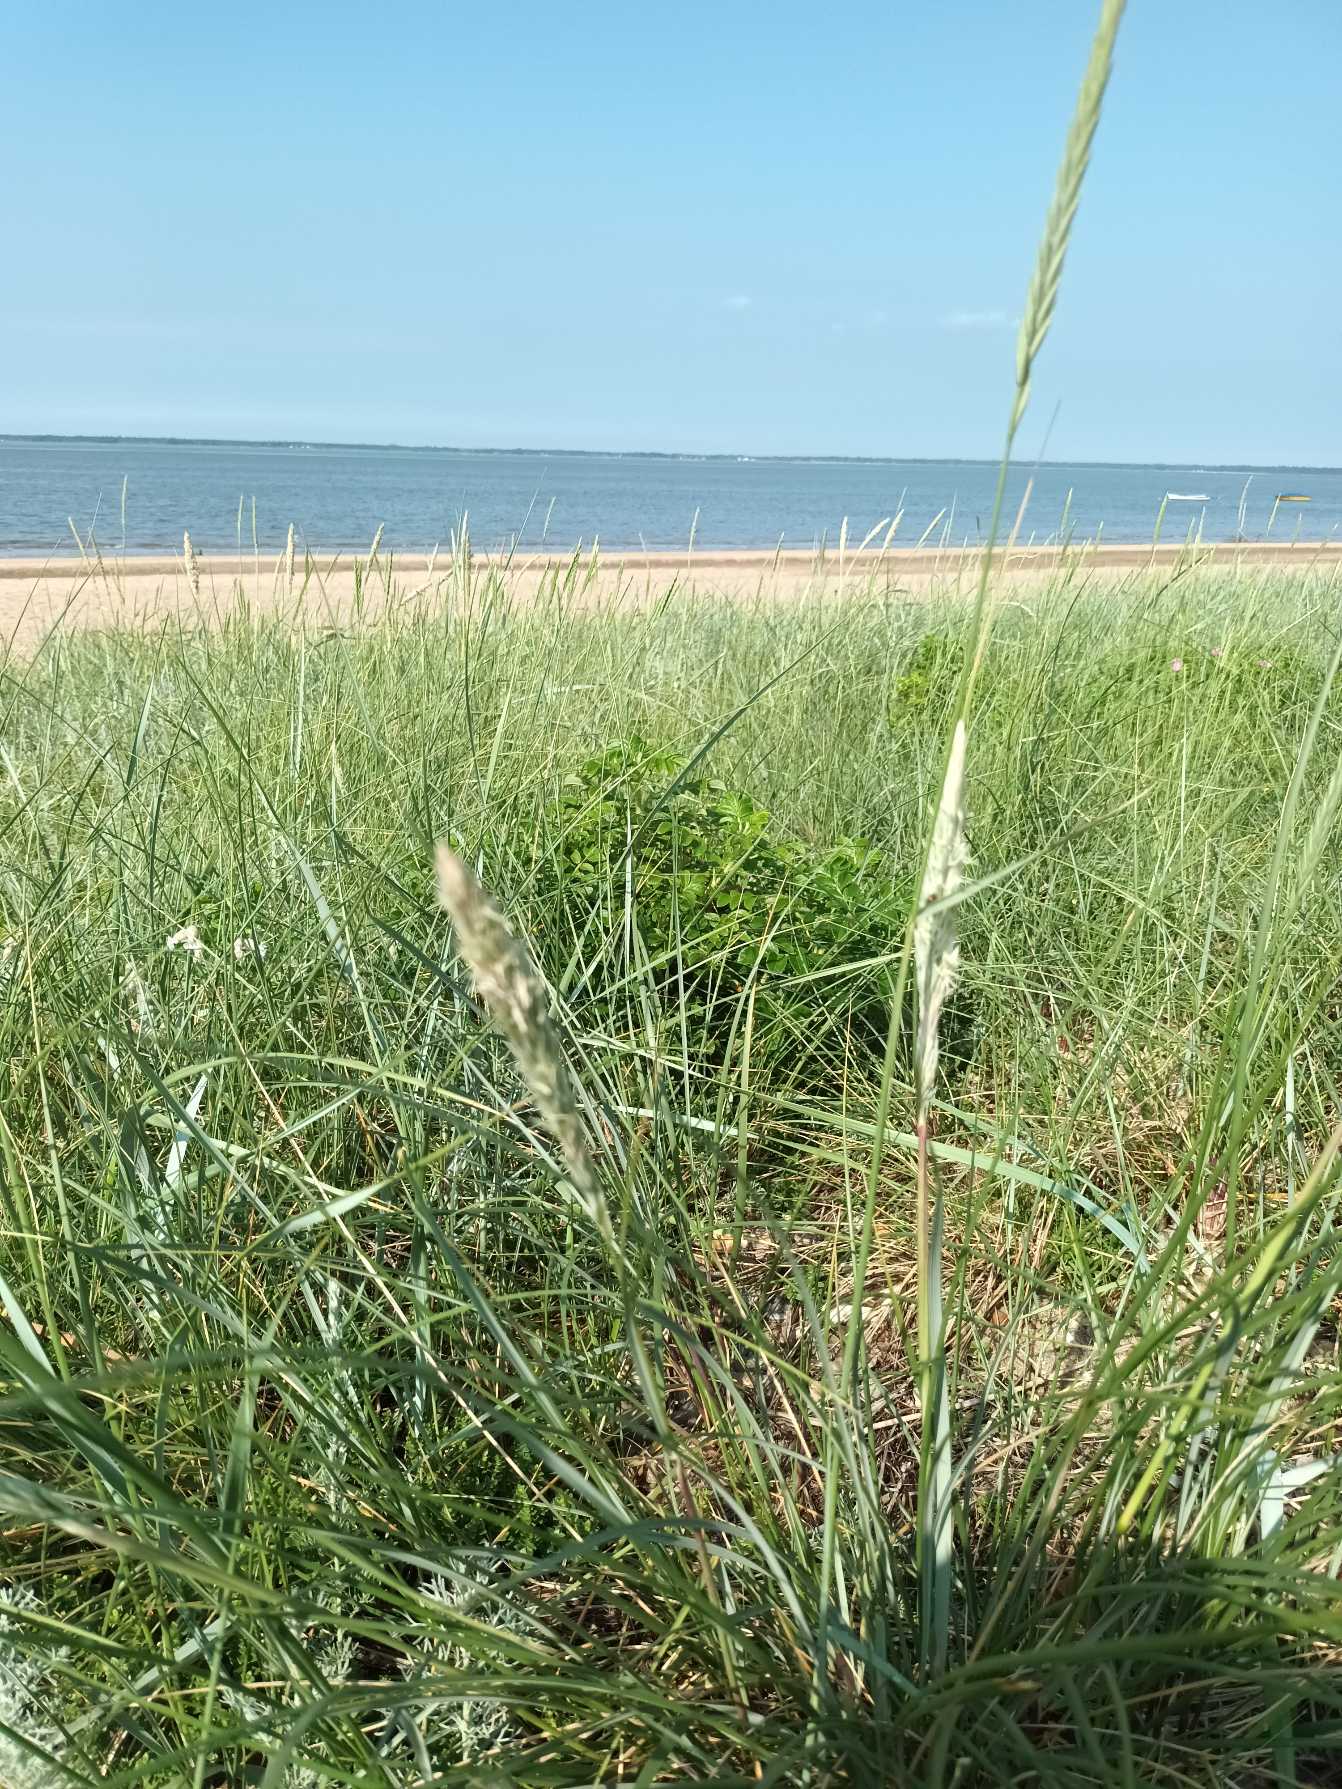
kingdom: Plantae
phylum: Tracheophyta
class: Liliopsida
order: Poales
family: Poaceae
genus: Calamagrostis
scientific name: Calamagrostis arenaria
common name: Sand-hjælme
